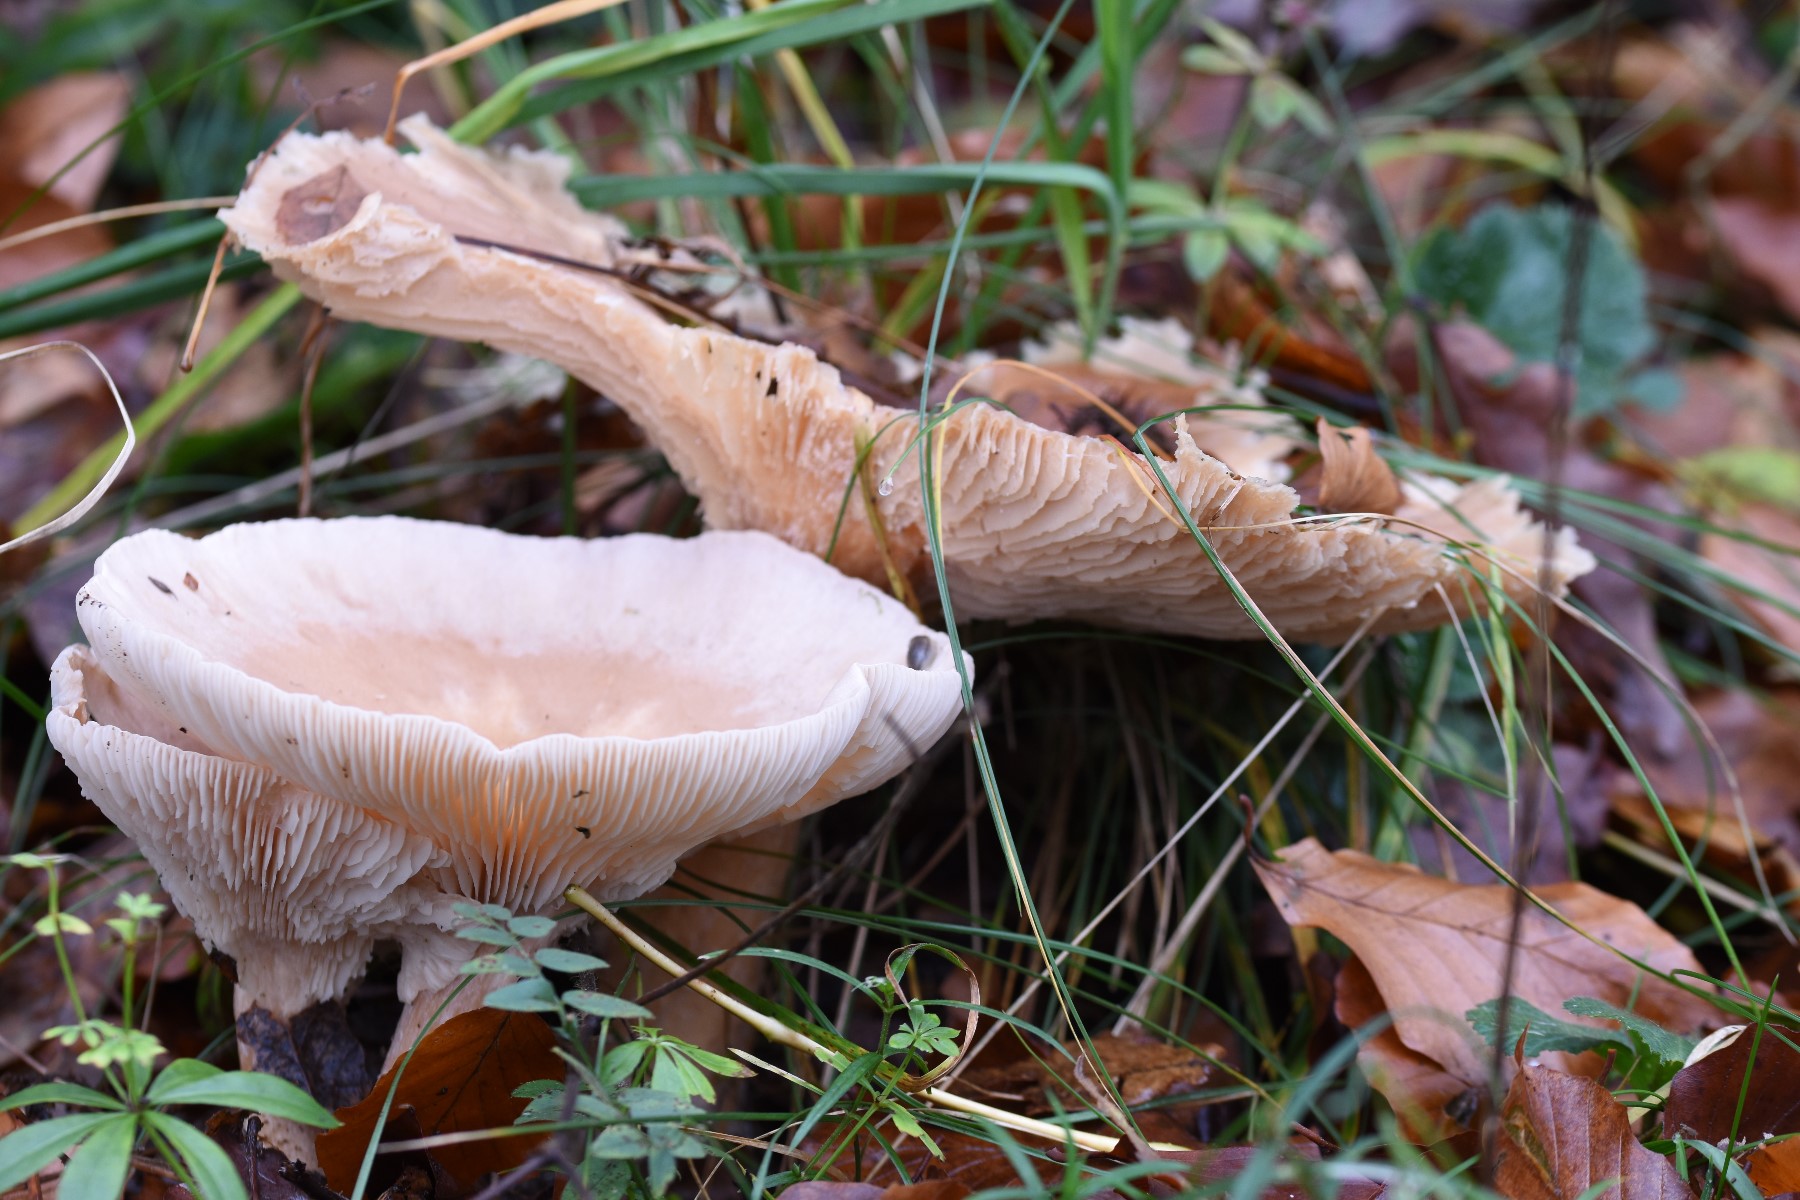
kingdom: Fungi
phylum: Basidiomycota
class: Agaricomycetes
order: Agaricales
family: Tricholomataceae
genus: Infundibulicybe
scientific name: Infundibulicybe geotropa
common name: stor tragthat
